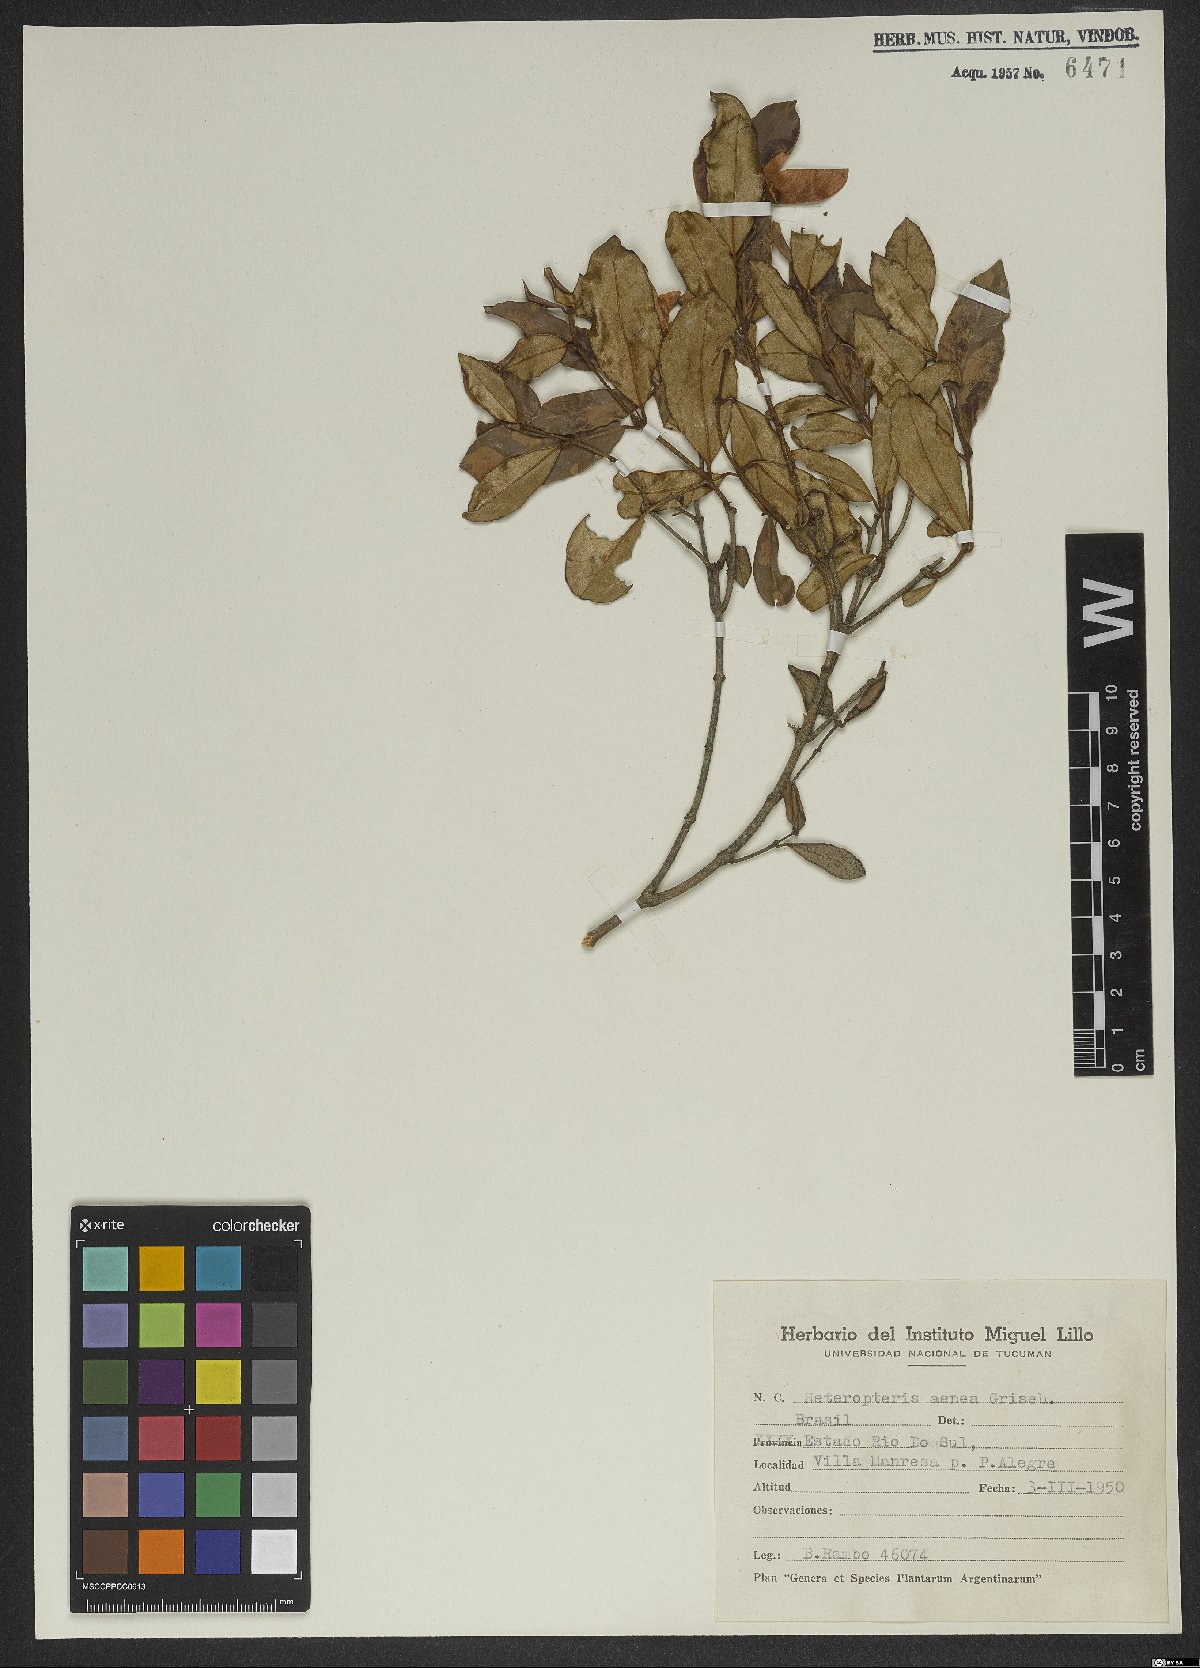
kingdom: Plantae
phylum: Tracheophyta
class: Magnoliopsida
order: Malpighiales
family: Malpighiaceae
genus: Heteropterys
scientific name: Heteropterys aenea
